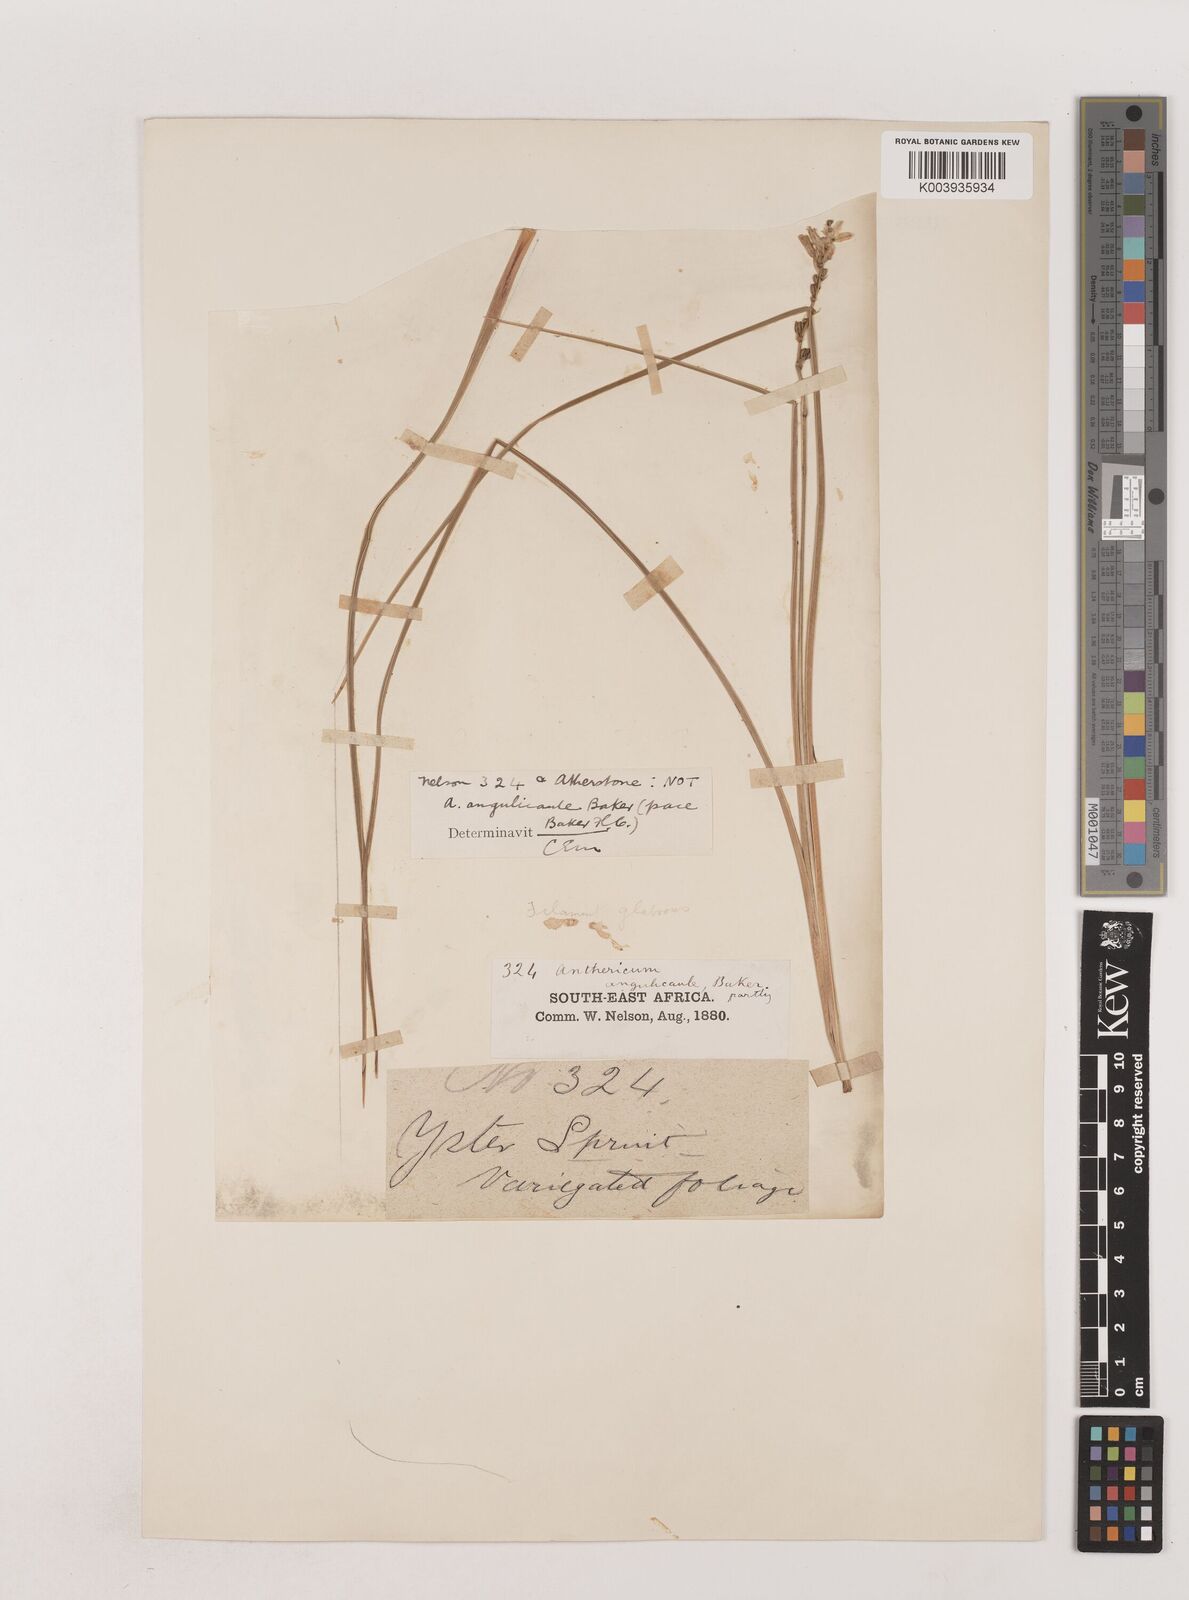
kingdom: Plantae
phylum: Tracheophyta
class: Liliopsida
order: Asparagales
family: Asparagaceae
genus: Chlorophytum
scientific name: Chlorophytum angulicaule
